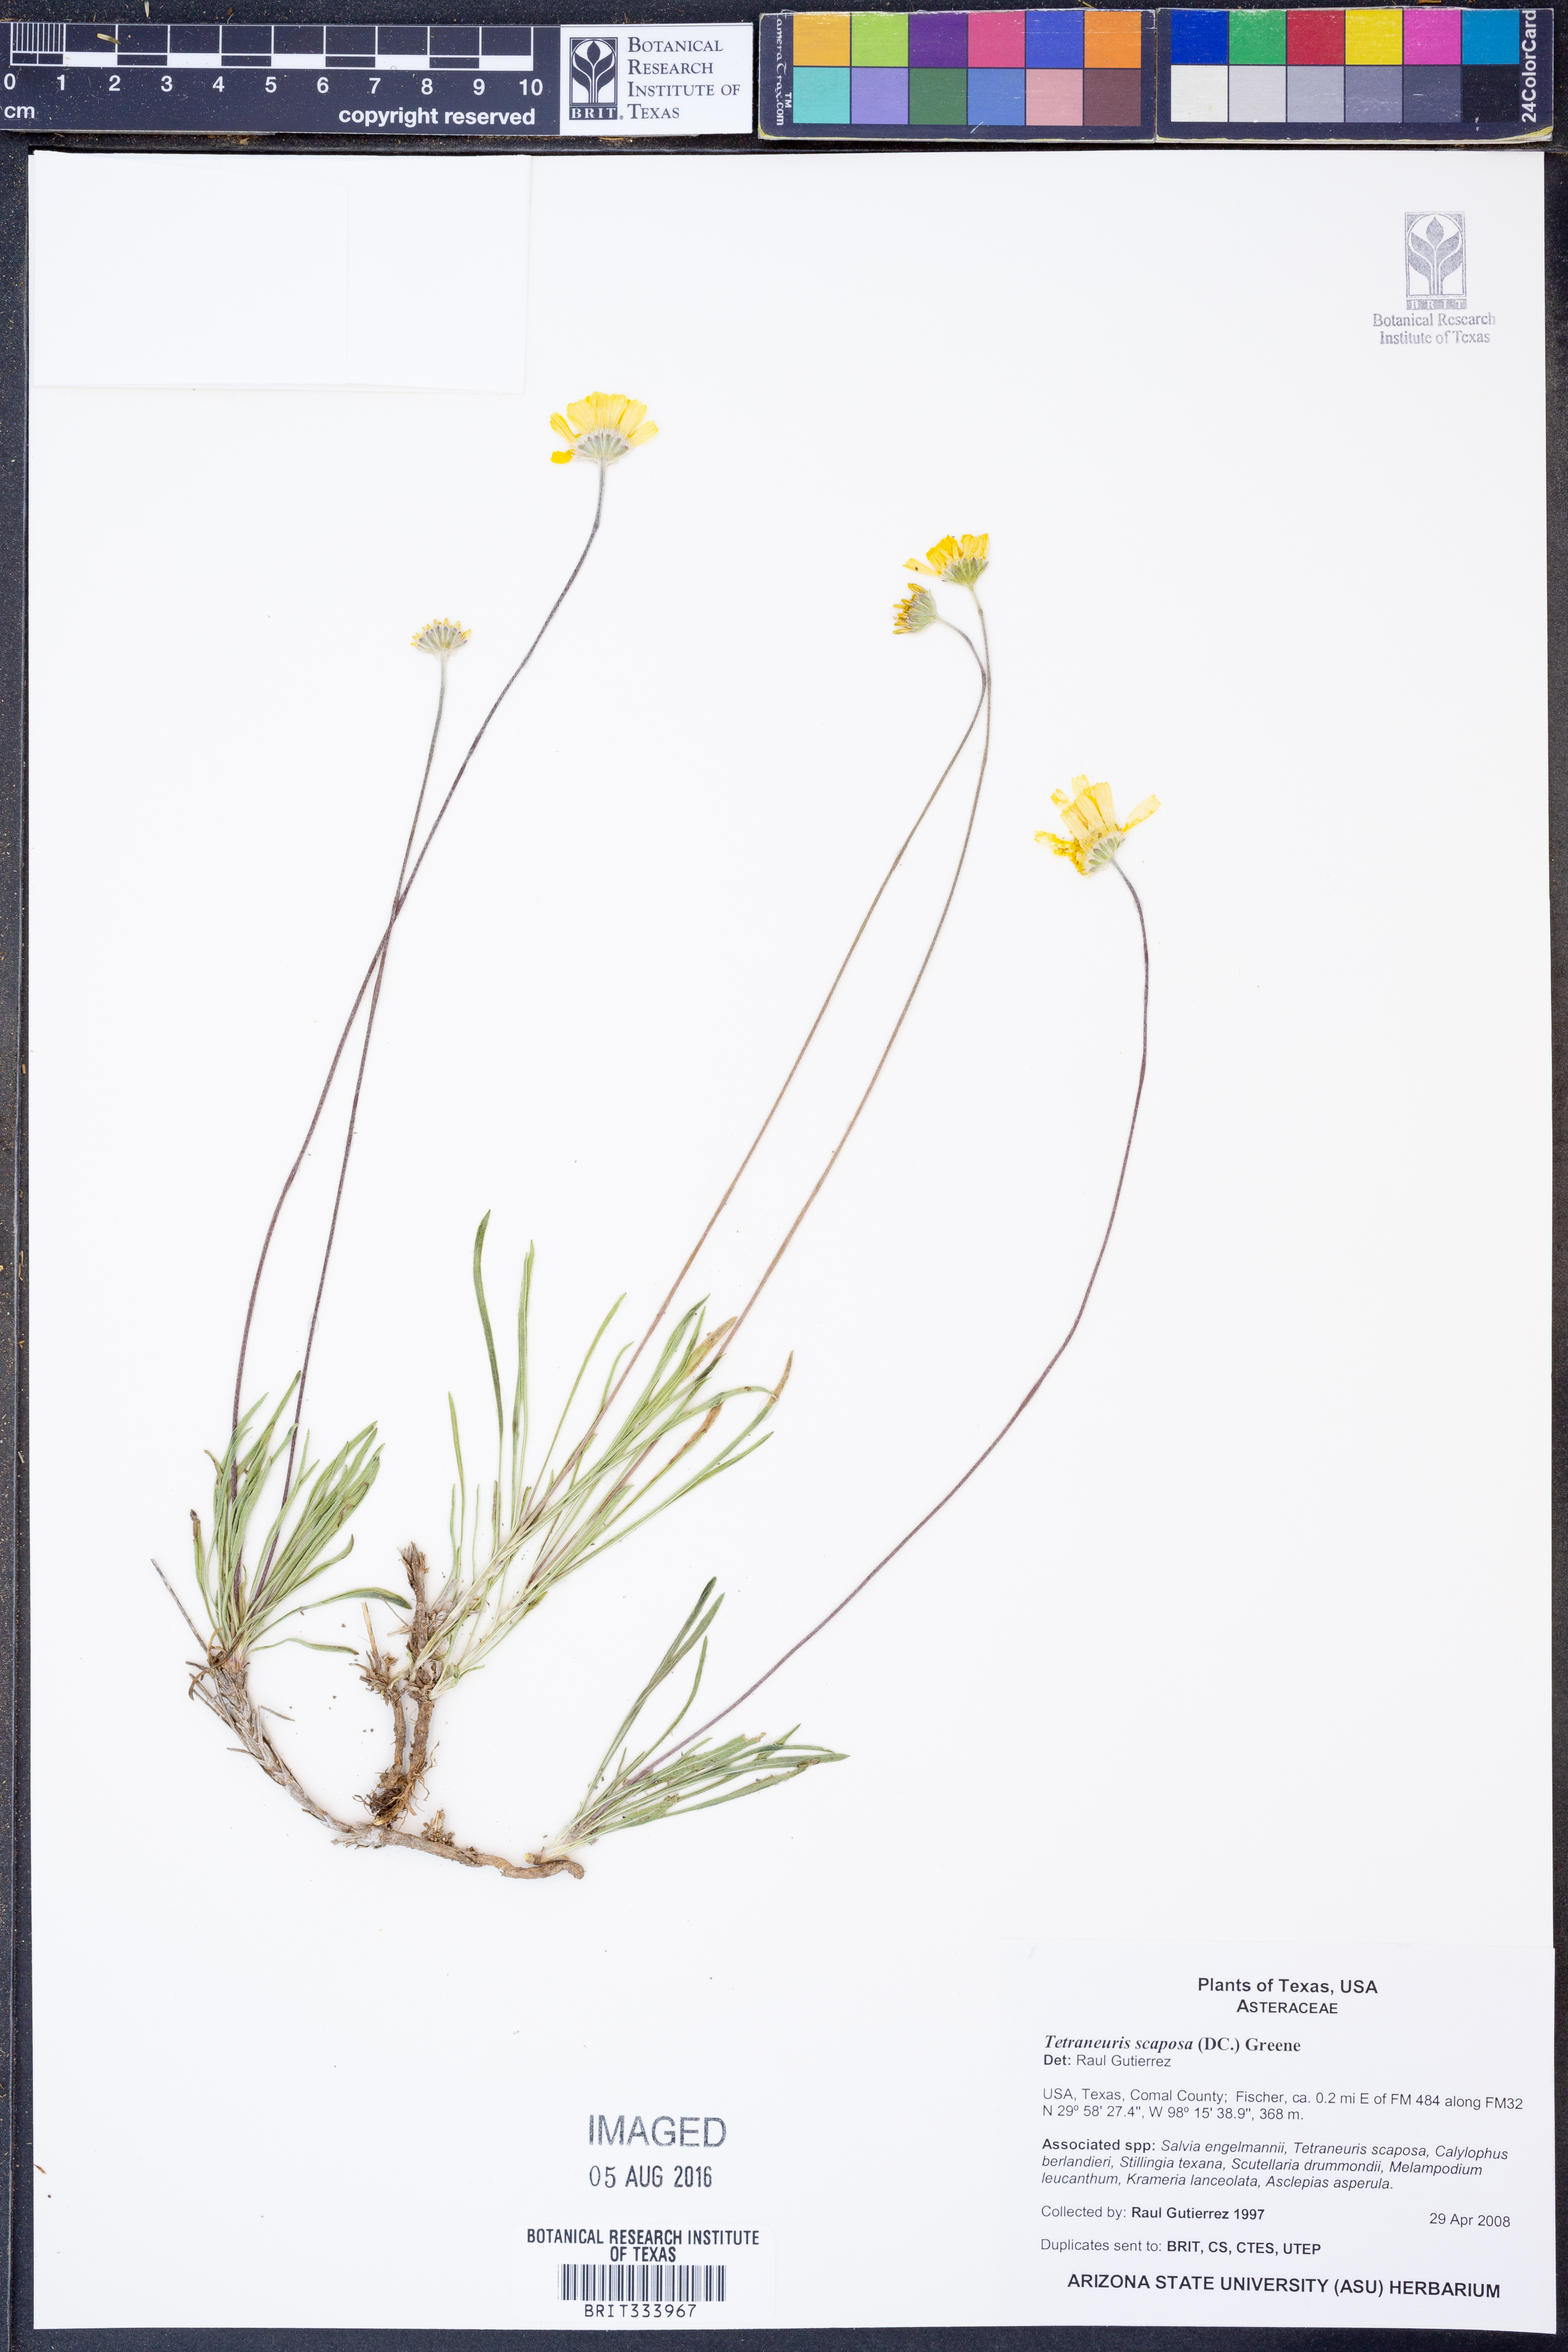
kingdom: Plantae
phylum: Tracheophyta
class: Magnoliopsida
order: Asterales
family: Asteraceae
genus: Tetraneuris
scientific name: Tetraneuris scaposa
